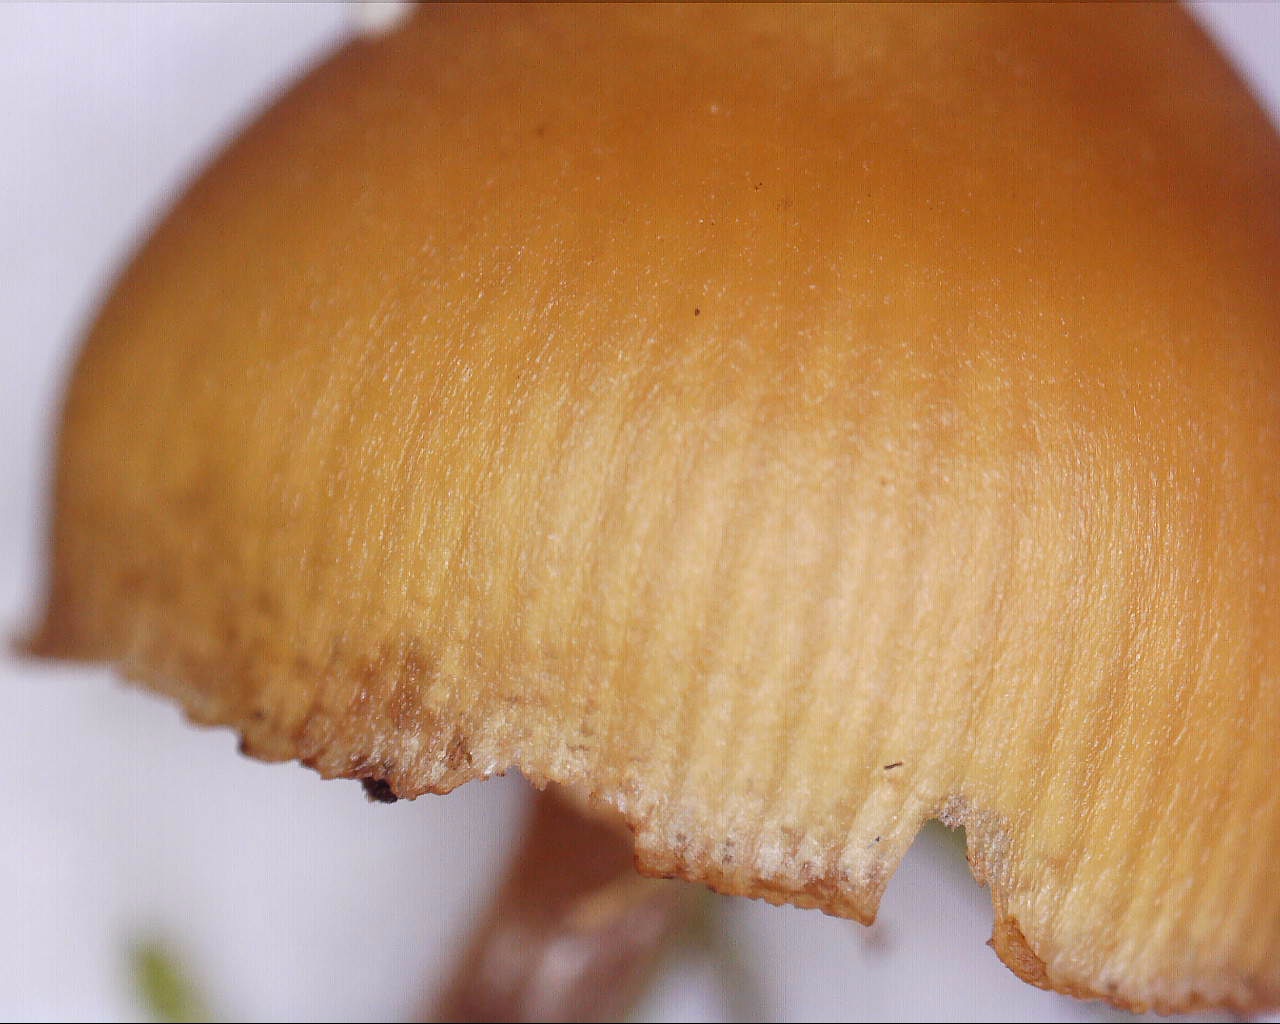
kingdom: Fungi
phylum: Basidiomycota
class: Agaricomycetes
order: Agaricales
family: Hymenogastraceae
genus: Galerina
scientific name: Galerina marginata
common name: randbæltet hjelmhat
